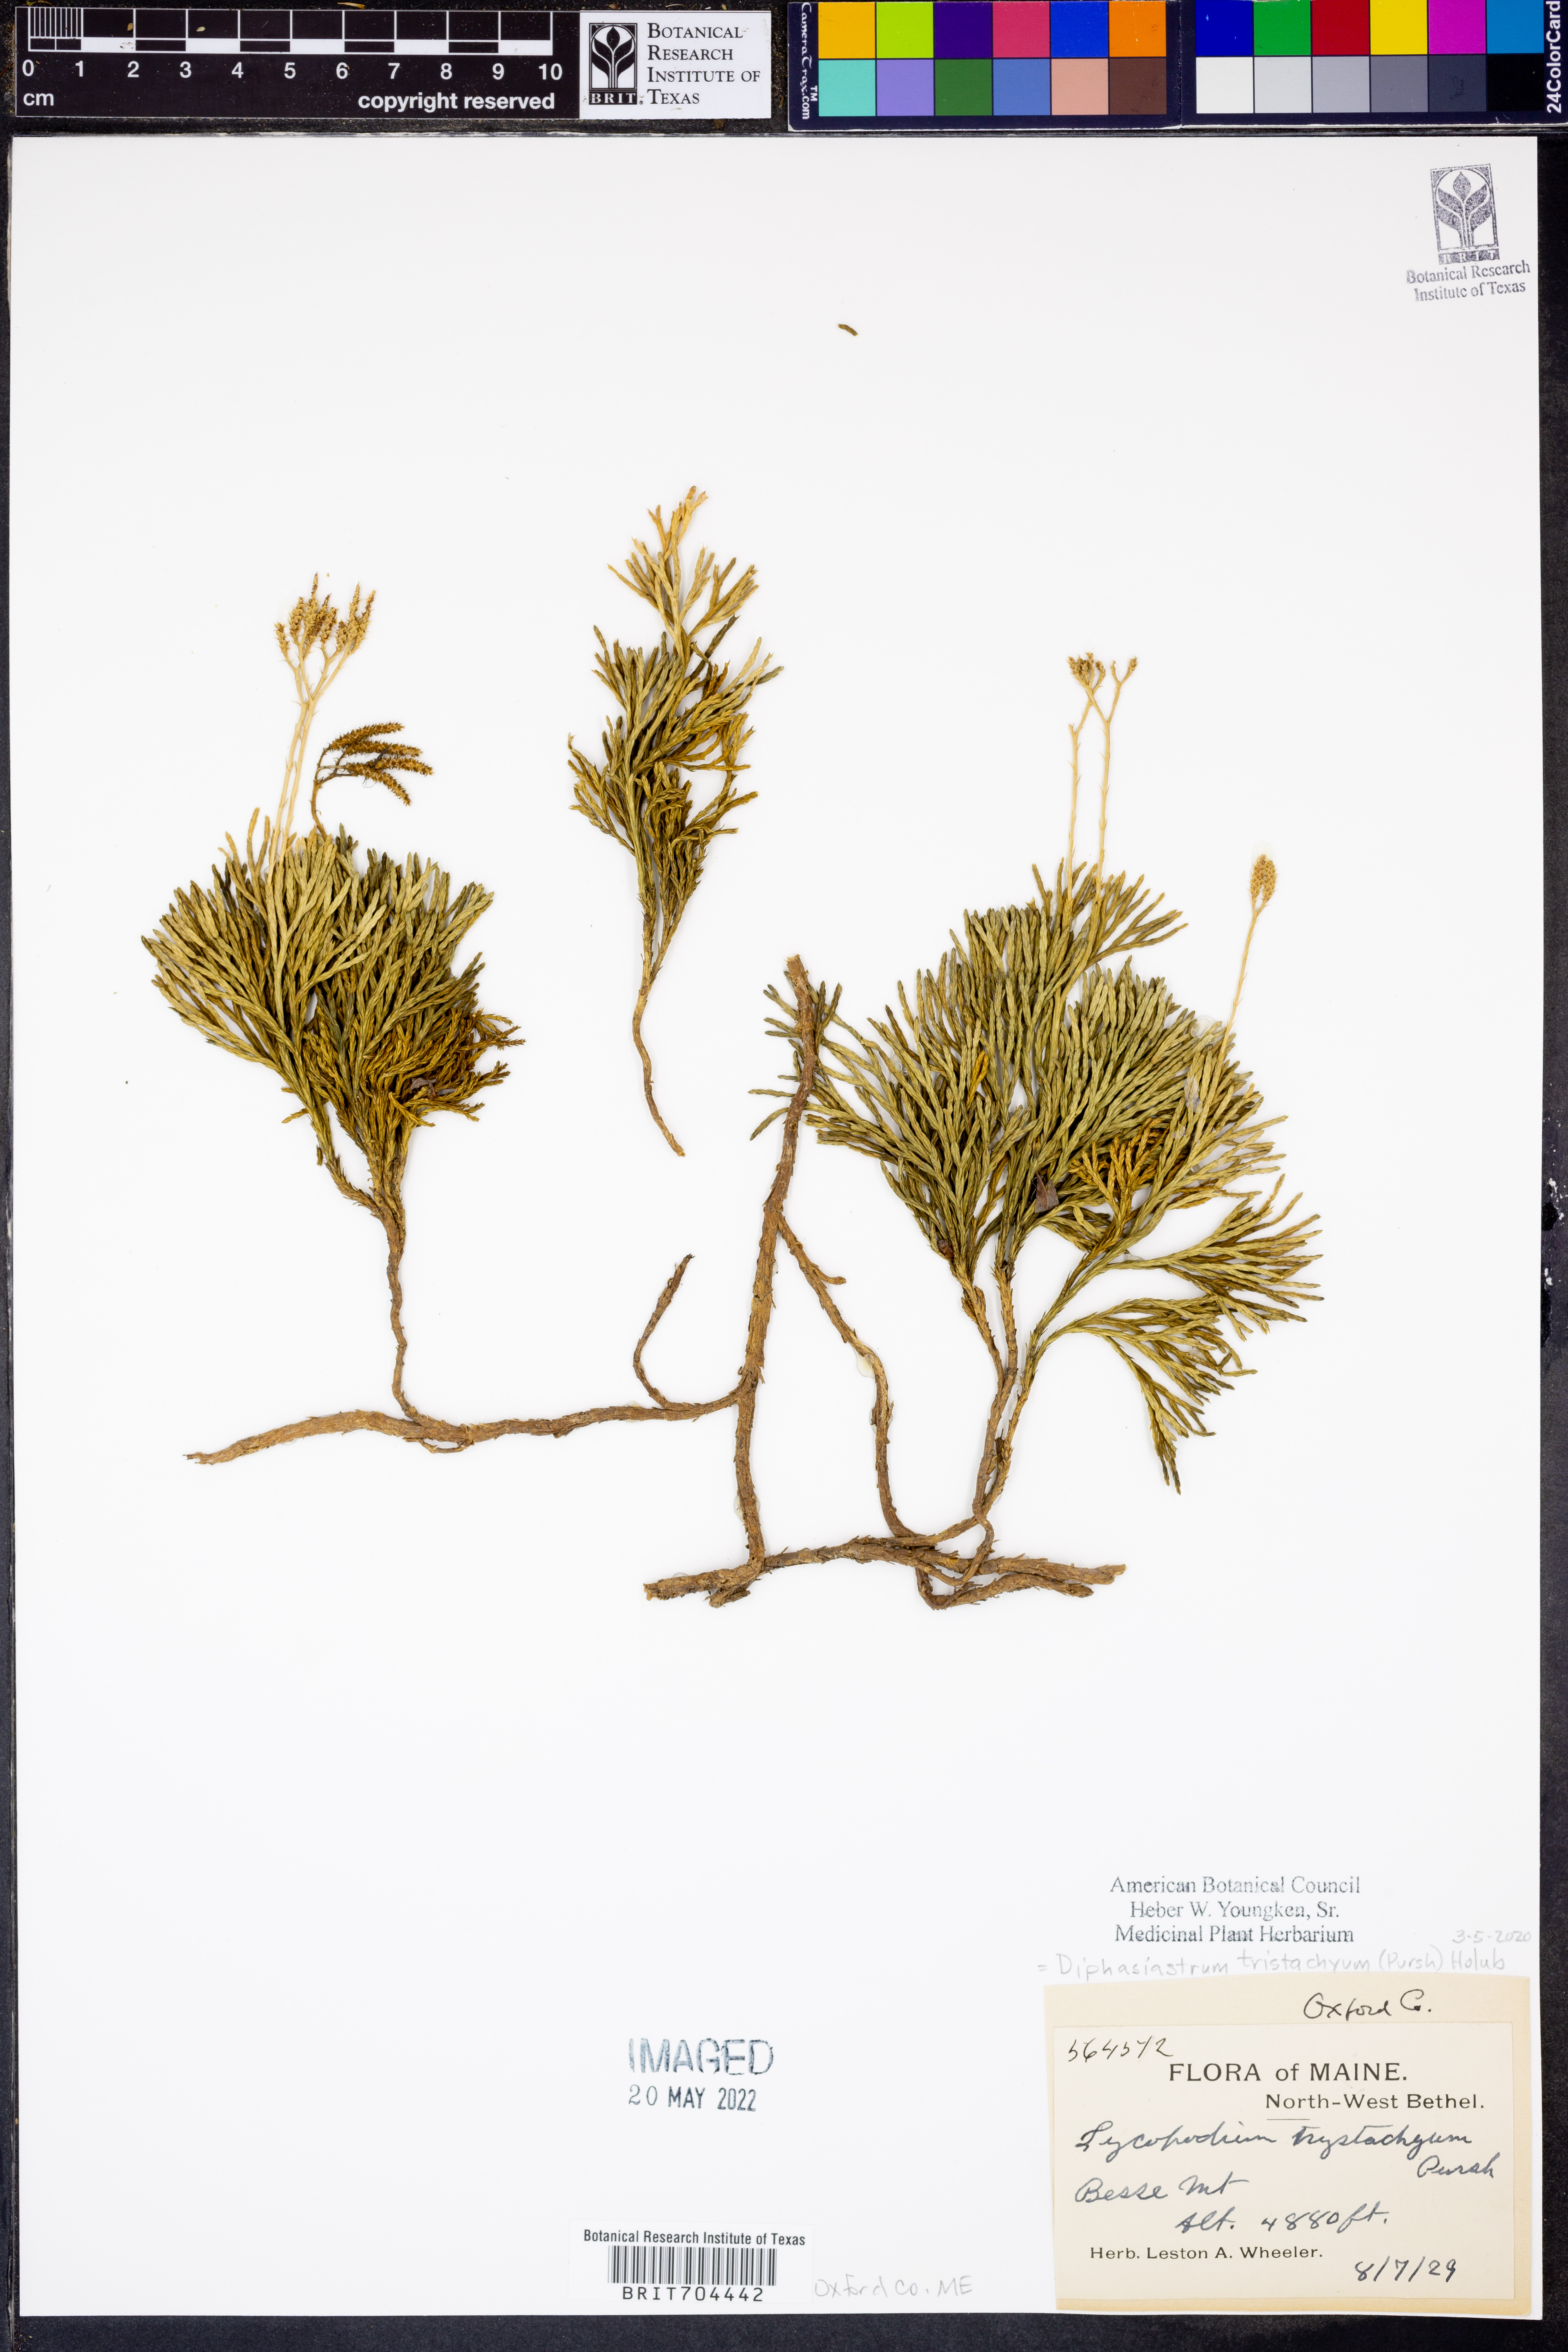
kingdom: Plantae
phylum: Tracheophyta
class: Lycopodiopsida
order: Lycopodiales
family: Lycopodiaceae
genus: Diphasiastrum
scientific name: Diphasiastrum tristachyum
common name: Blue ground-cedar
